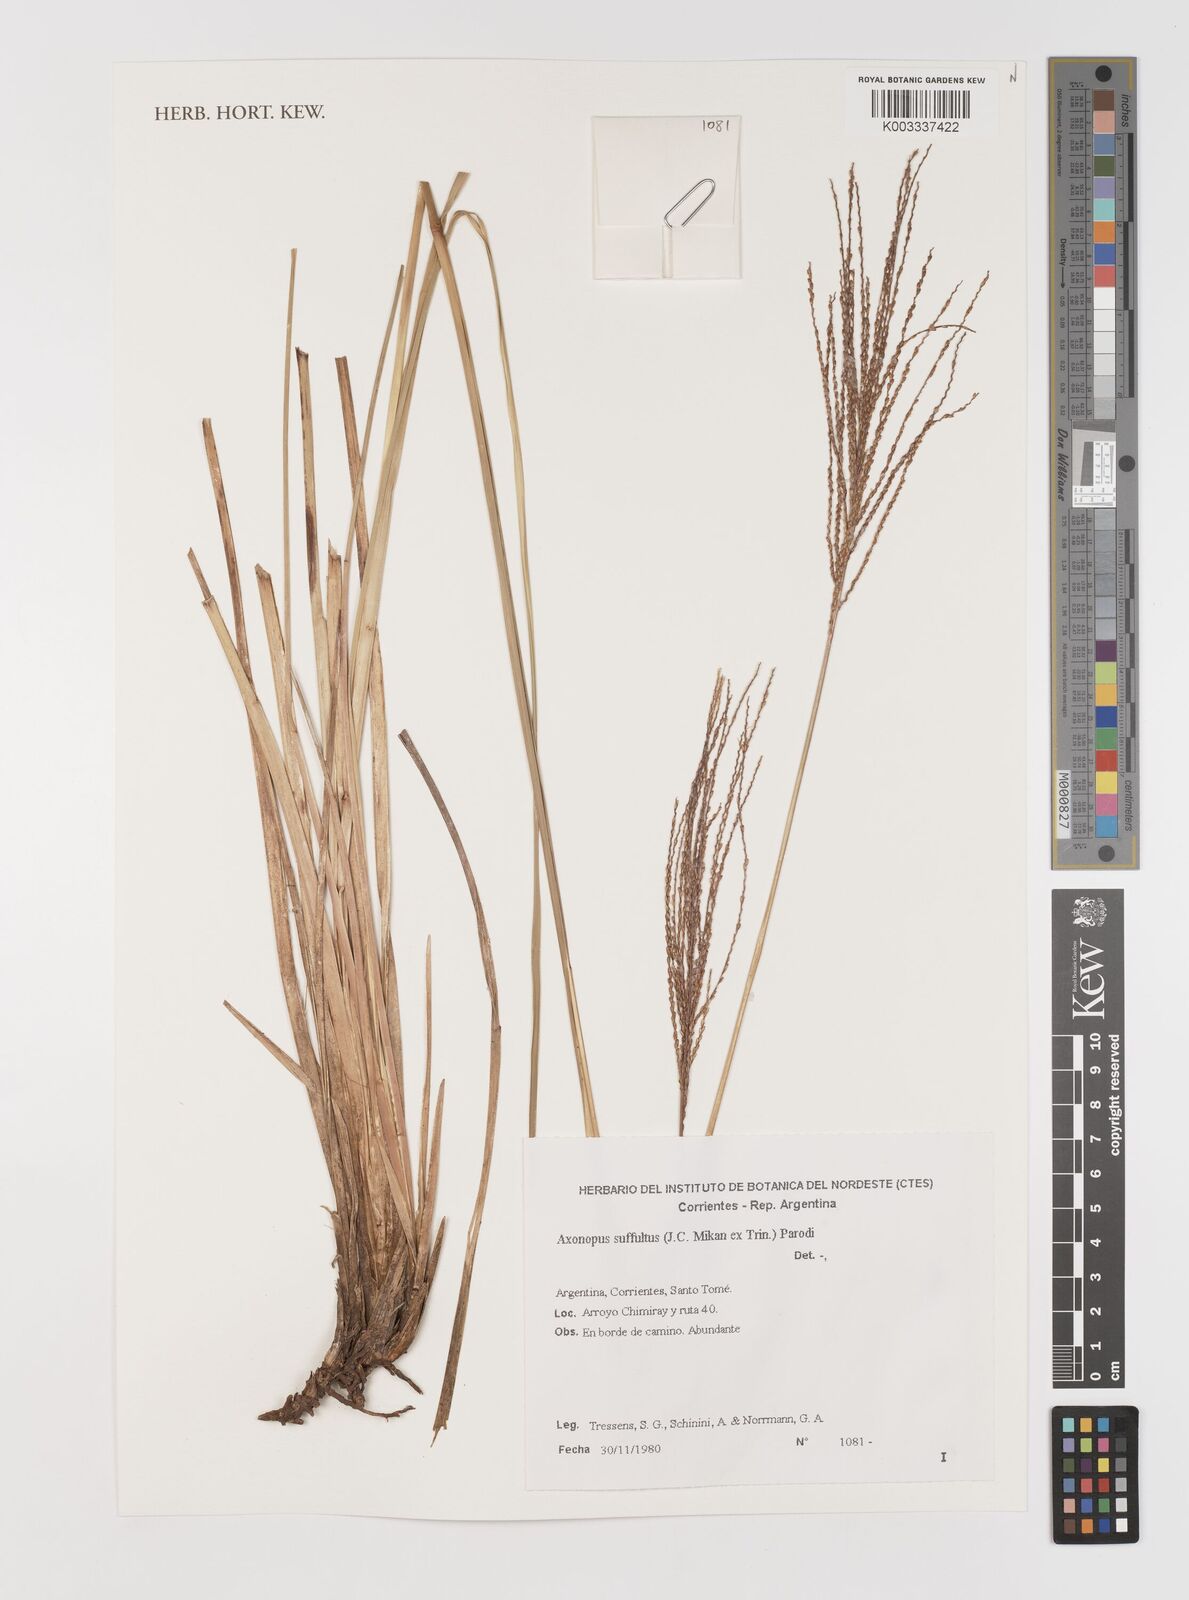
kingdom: Plantae
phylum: Tracheophyta
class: Liliopsida
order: Poales
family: Poaceae
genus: Axonopus
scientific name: Axonopus suffultus
